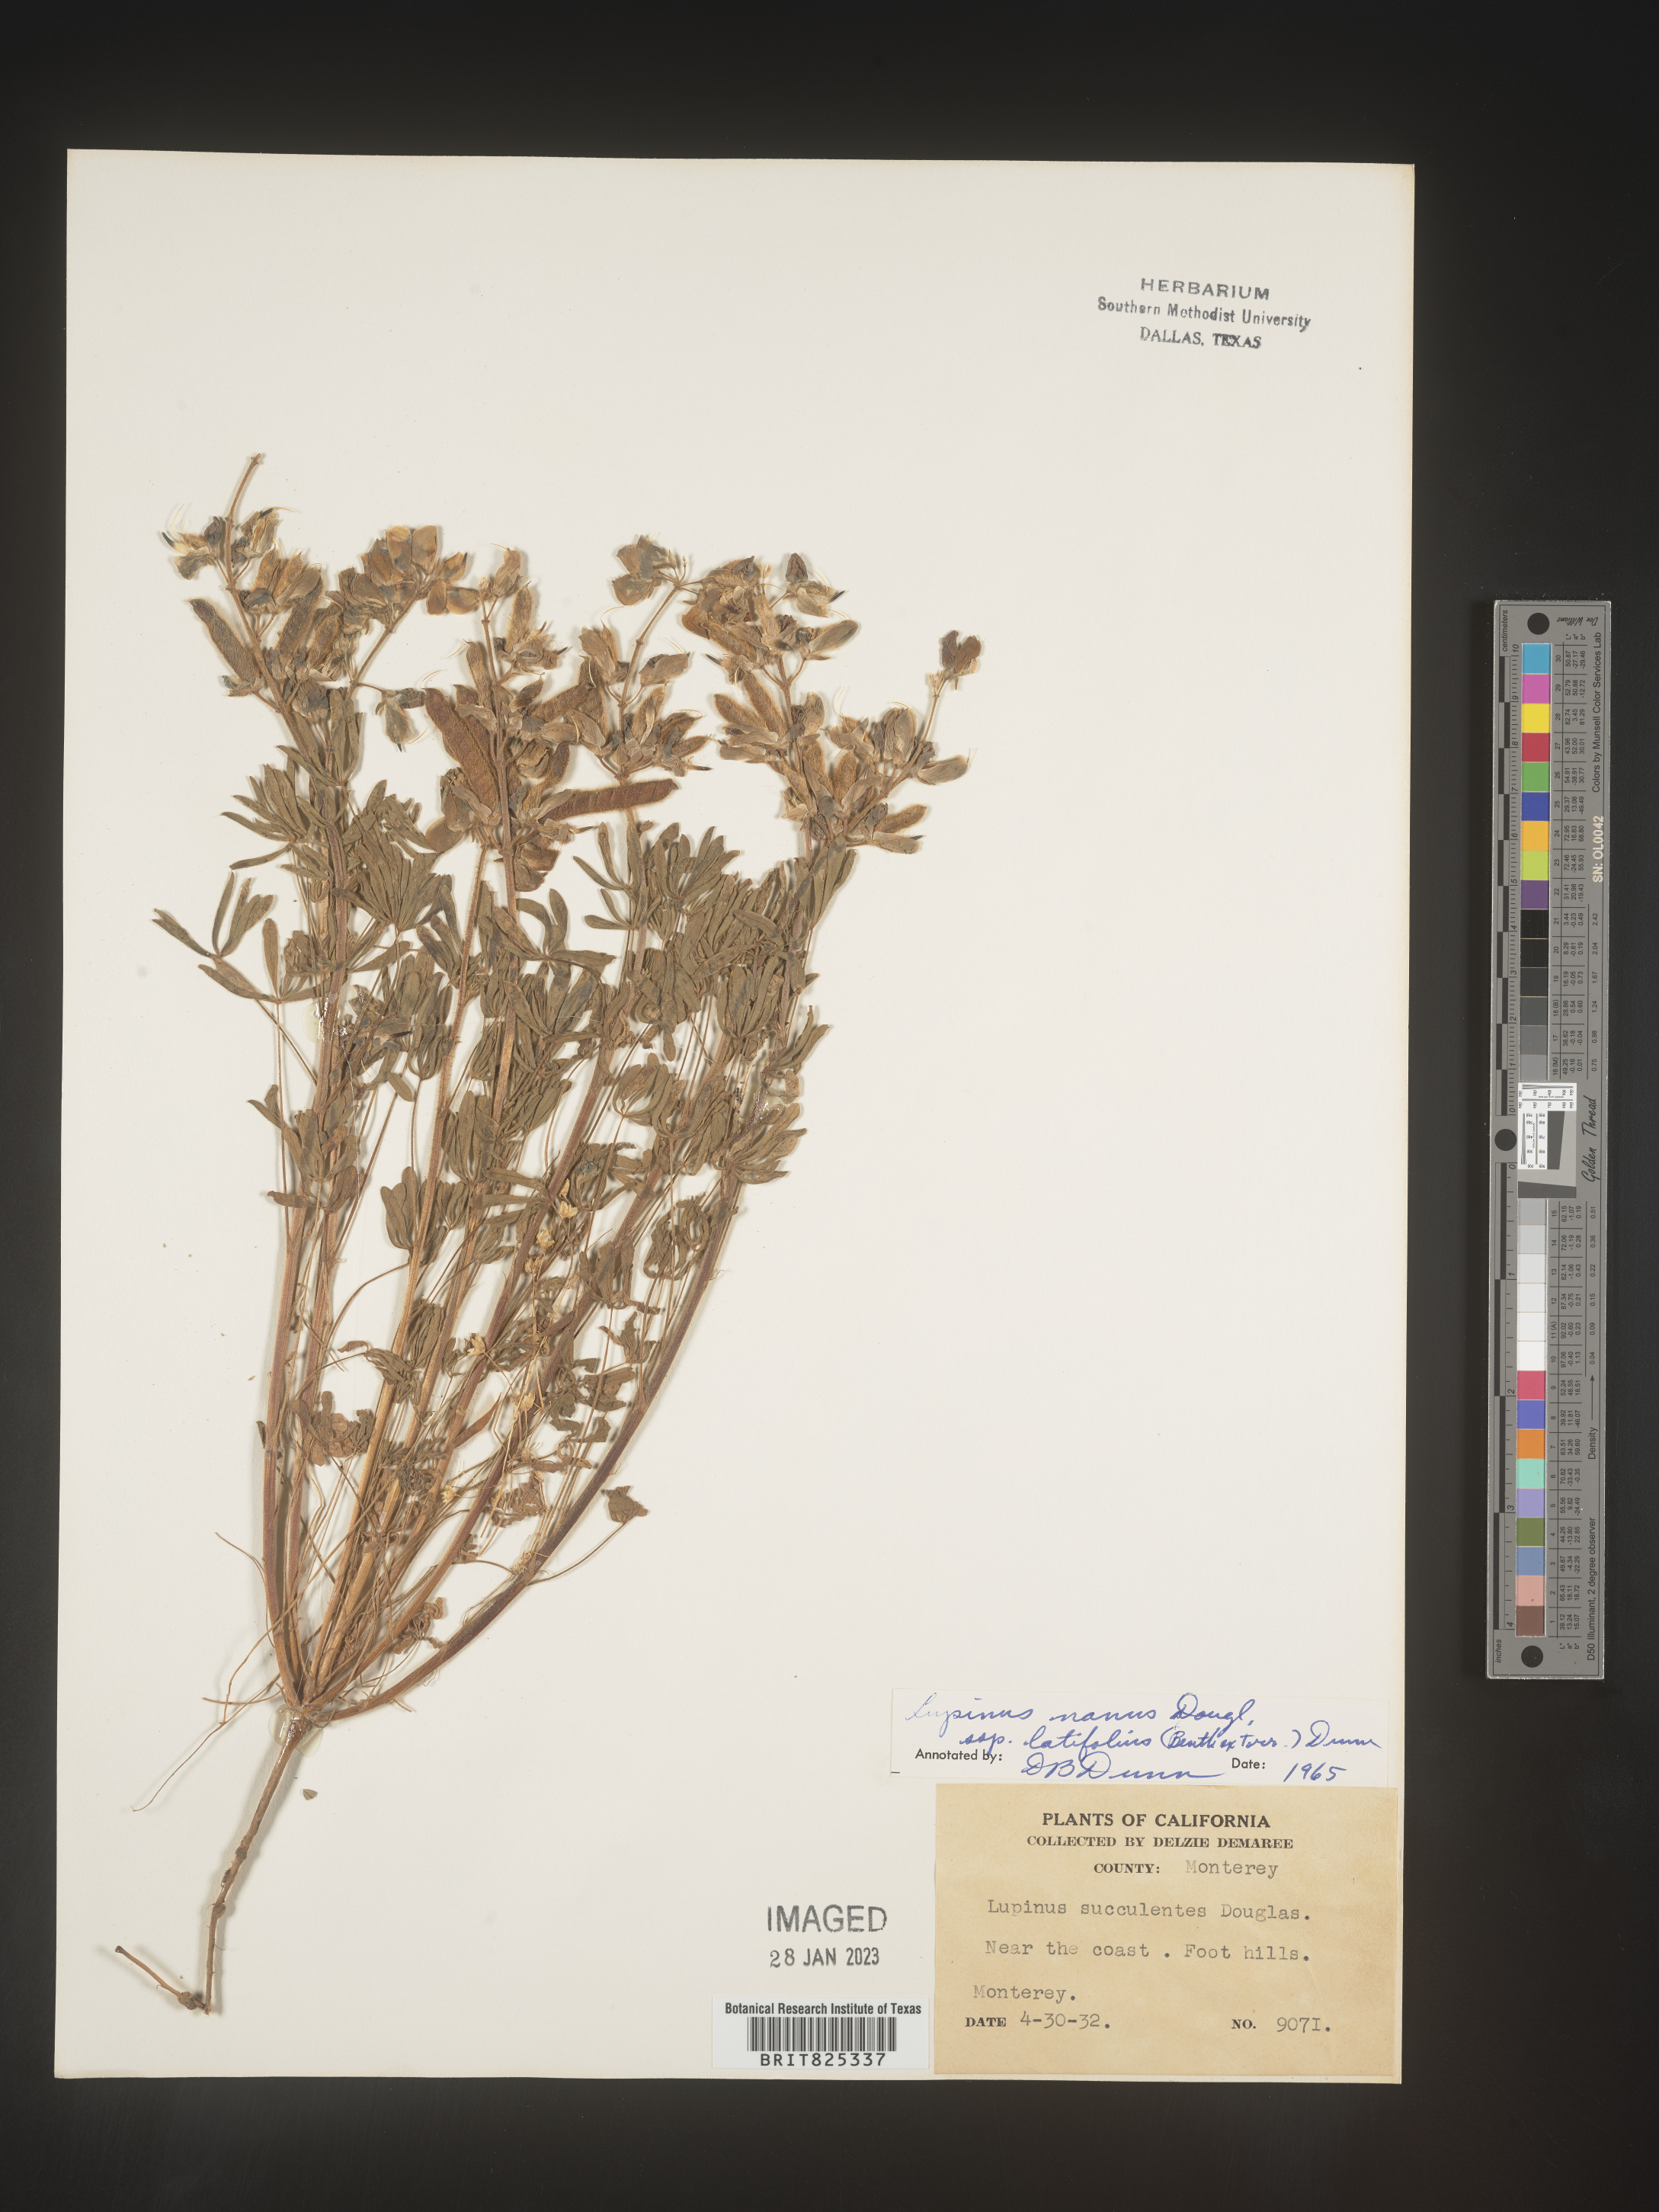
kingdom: Plantae
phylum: Tracheophyta
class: Magnoliopsida
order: Fabales
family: Fabaceae
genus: Lupinus
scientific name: Lupinus nanus
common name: Orean blue lupin
